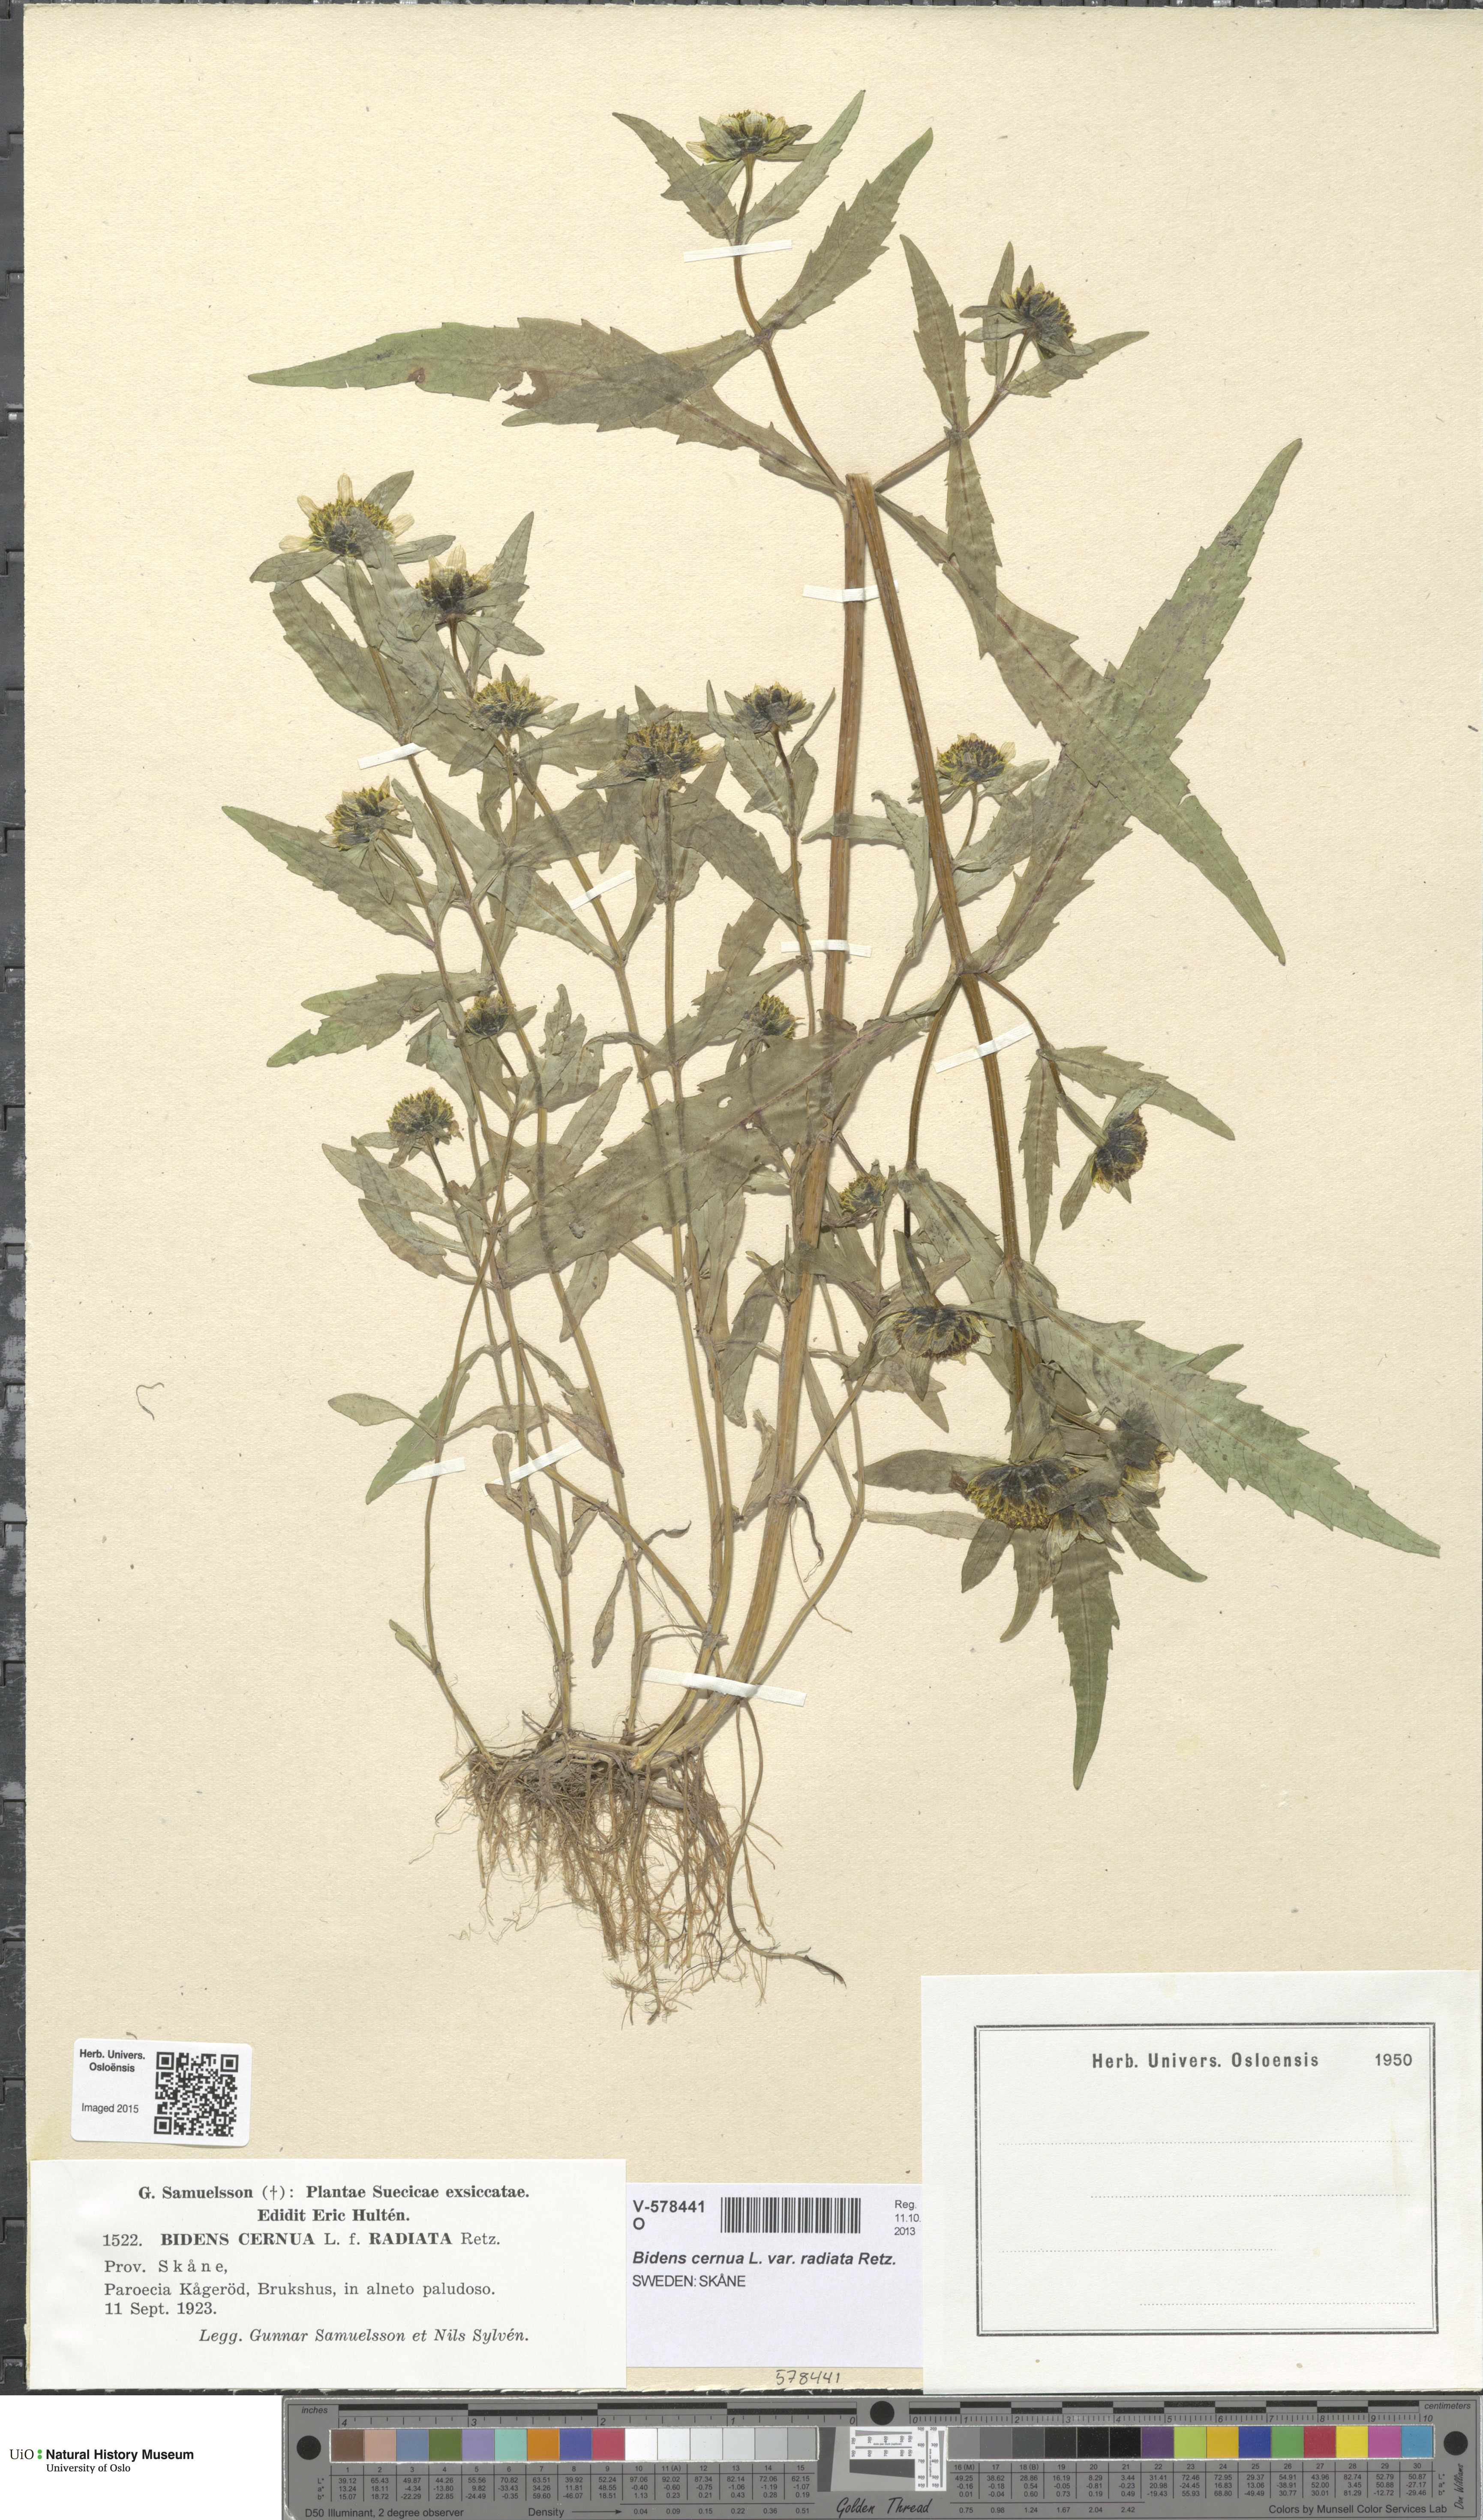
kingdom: Plantae
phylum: Tracheophyta
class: Magnoliopsida
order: Asterales
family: Asteraceae
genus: Bidens
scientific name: Bidens cernua
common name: Nodding bur-marigold
